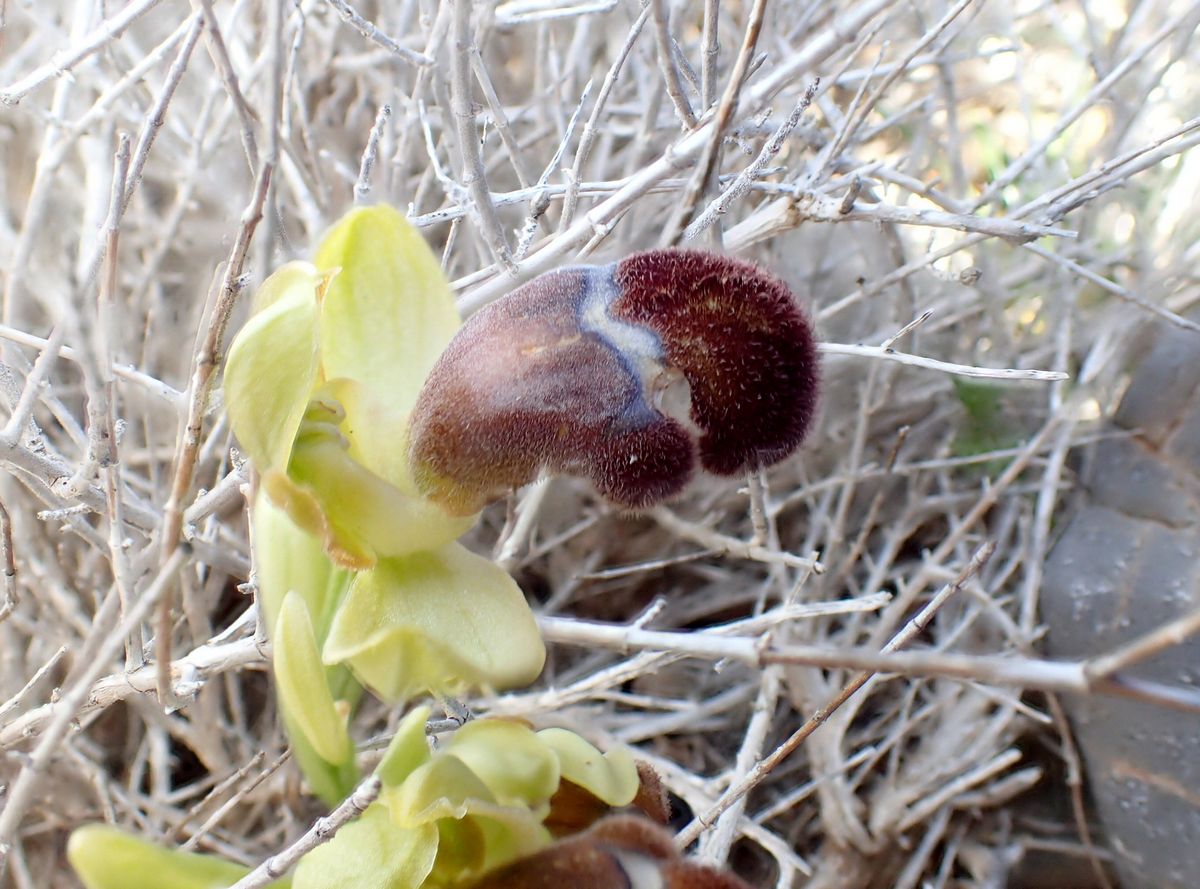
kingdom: Plantae
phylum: Tracheophyta
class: Liliopsida
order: Asparagales
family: Orchidaceae
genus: Ophrys
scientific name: Ophrys omegaifera
